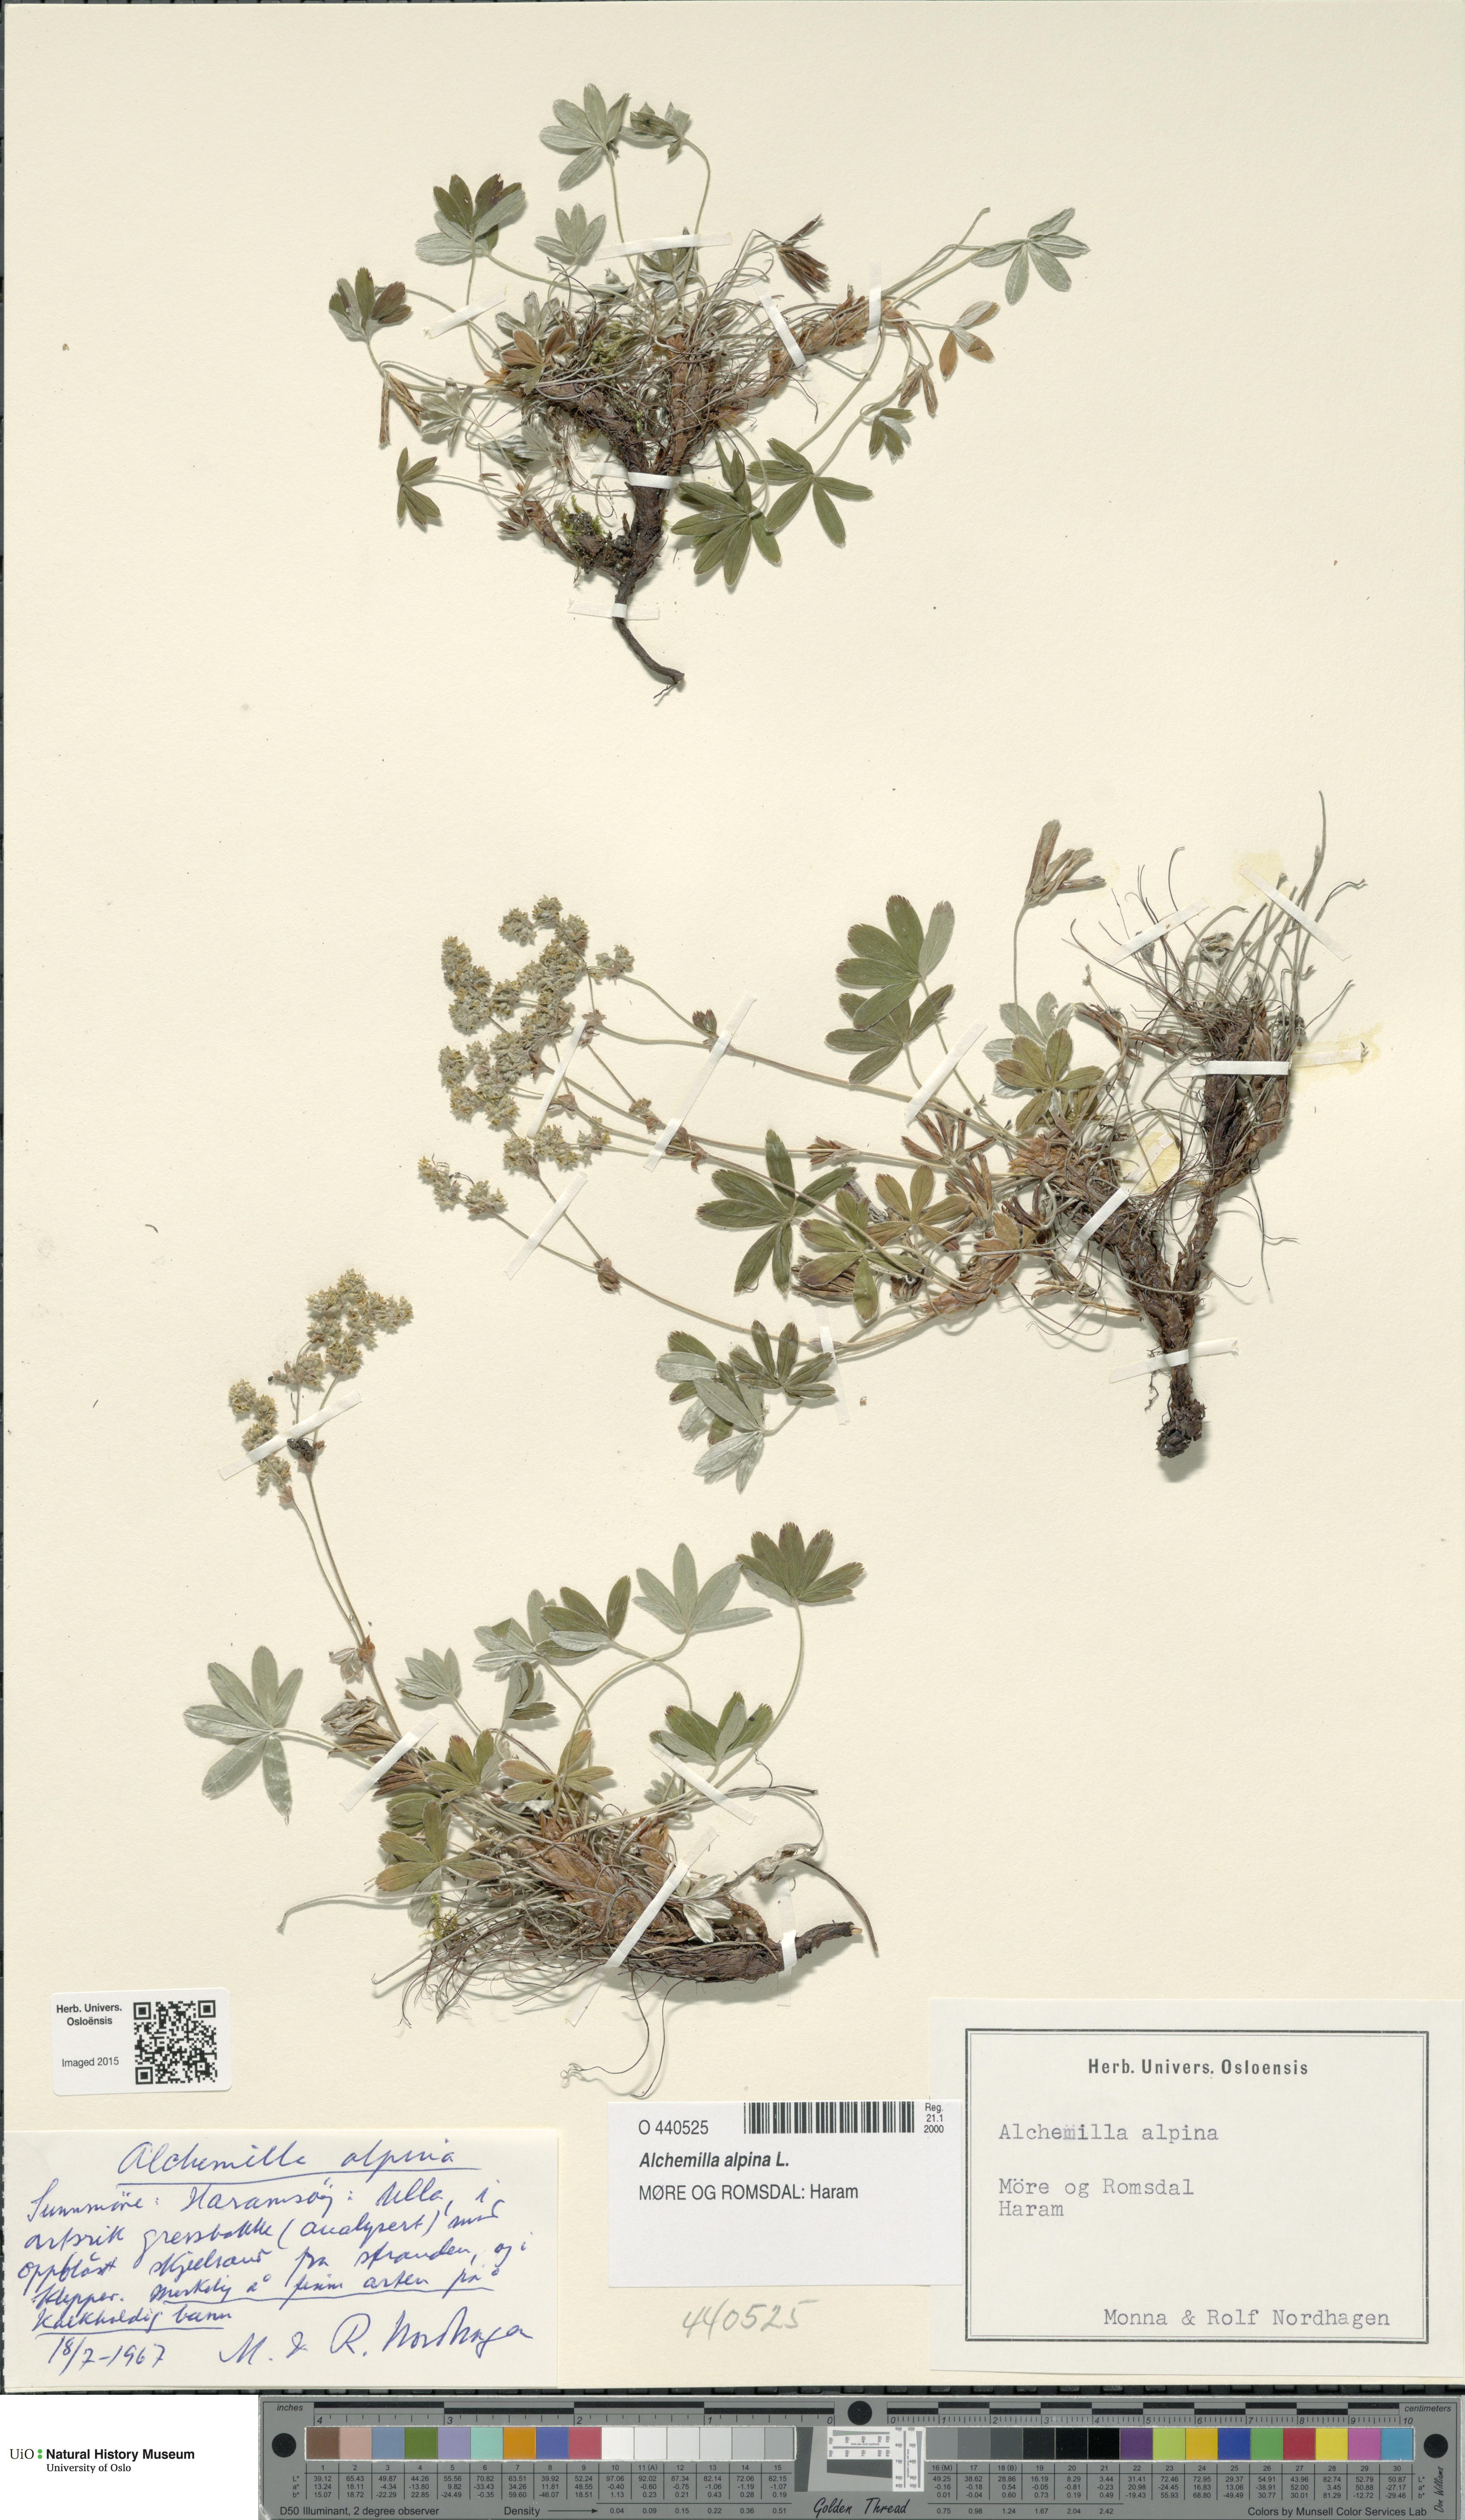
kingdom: Plantae
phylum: Tracheophyta
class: Magnoliopsida
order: Rosales
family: Rosaceae
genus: Alchemilla
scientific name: Alchemilla alpina
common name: Alpine lady's-mantle
